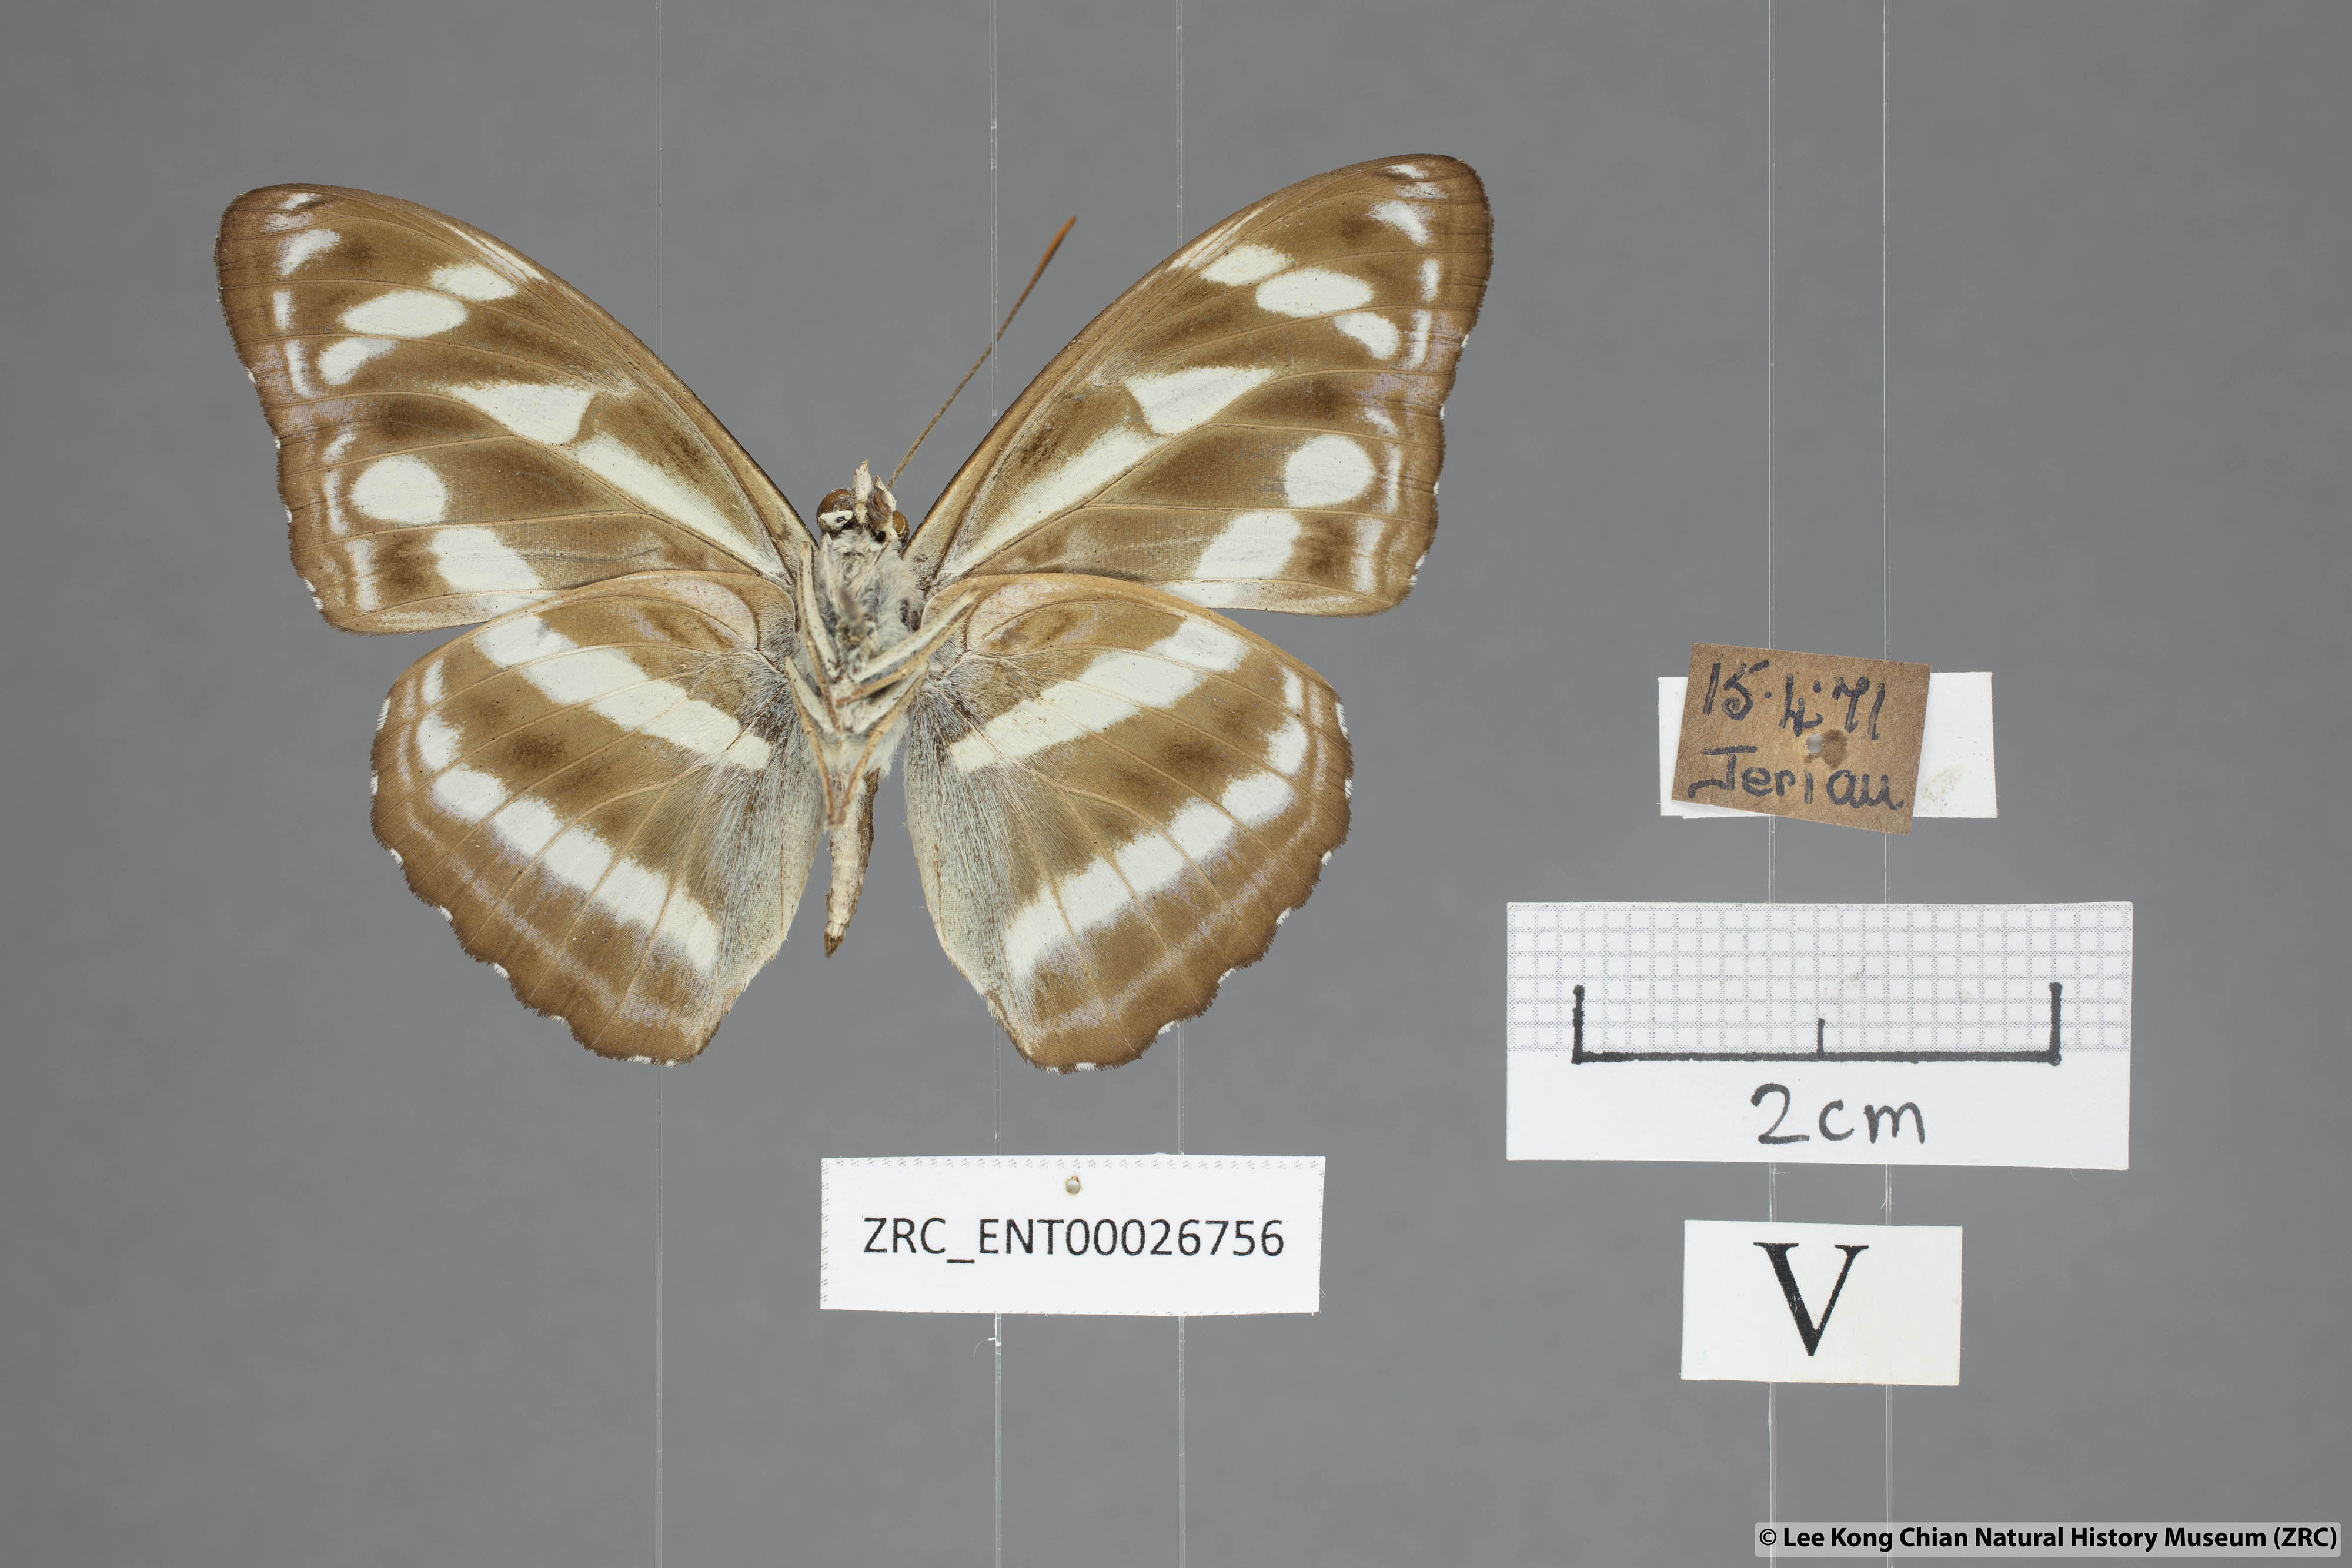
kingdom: Animalia
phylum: Arthropoda
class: Insecta
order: Lepidoptera
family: Nymphalidae
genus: Parathyma
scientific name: Parathyma kanwa
